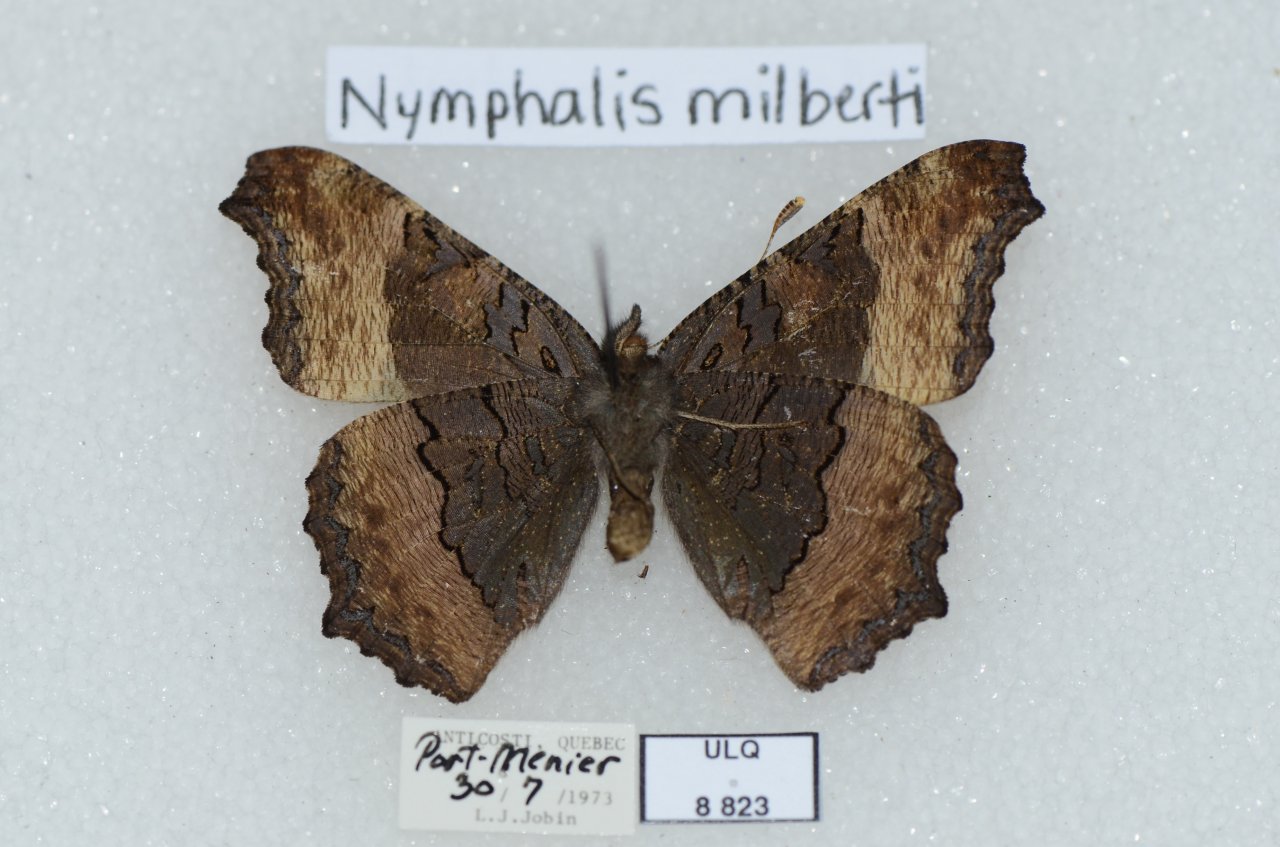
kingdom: Animalia
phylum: Arthropoda
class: Insecta
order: Lepidoptera
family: Nymphalidae
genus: Aglais
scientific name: Aglais milberti
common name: Milbert's Tortoiseshell
